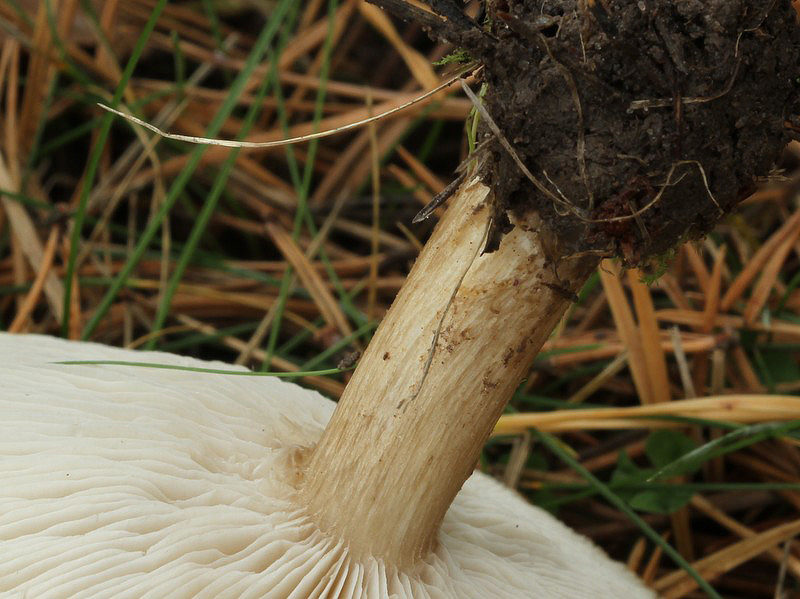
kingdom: Fungi
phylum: Basidiomycota
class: Agaricomycetes
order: Agaricales
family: Tricholomataceae
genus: Melanoleuca
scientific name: Melanoleuca grammopodia
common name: stribestokket munkehat
